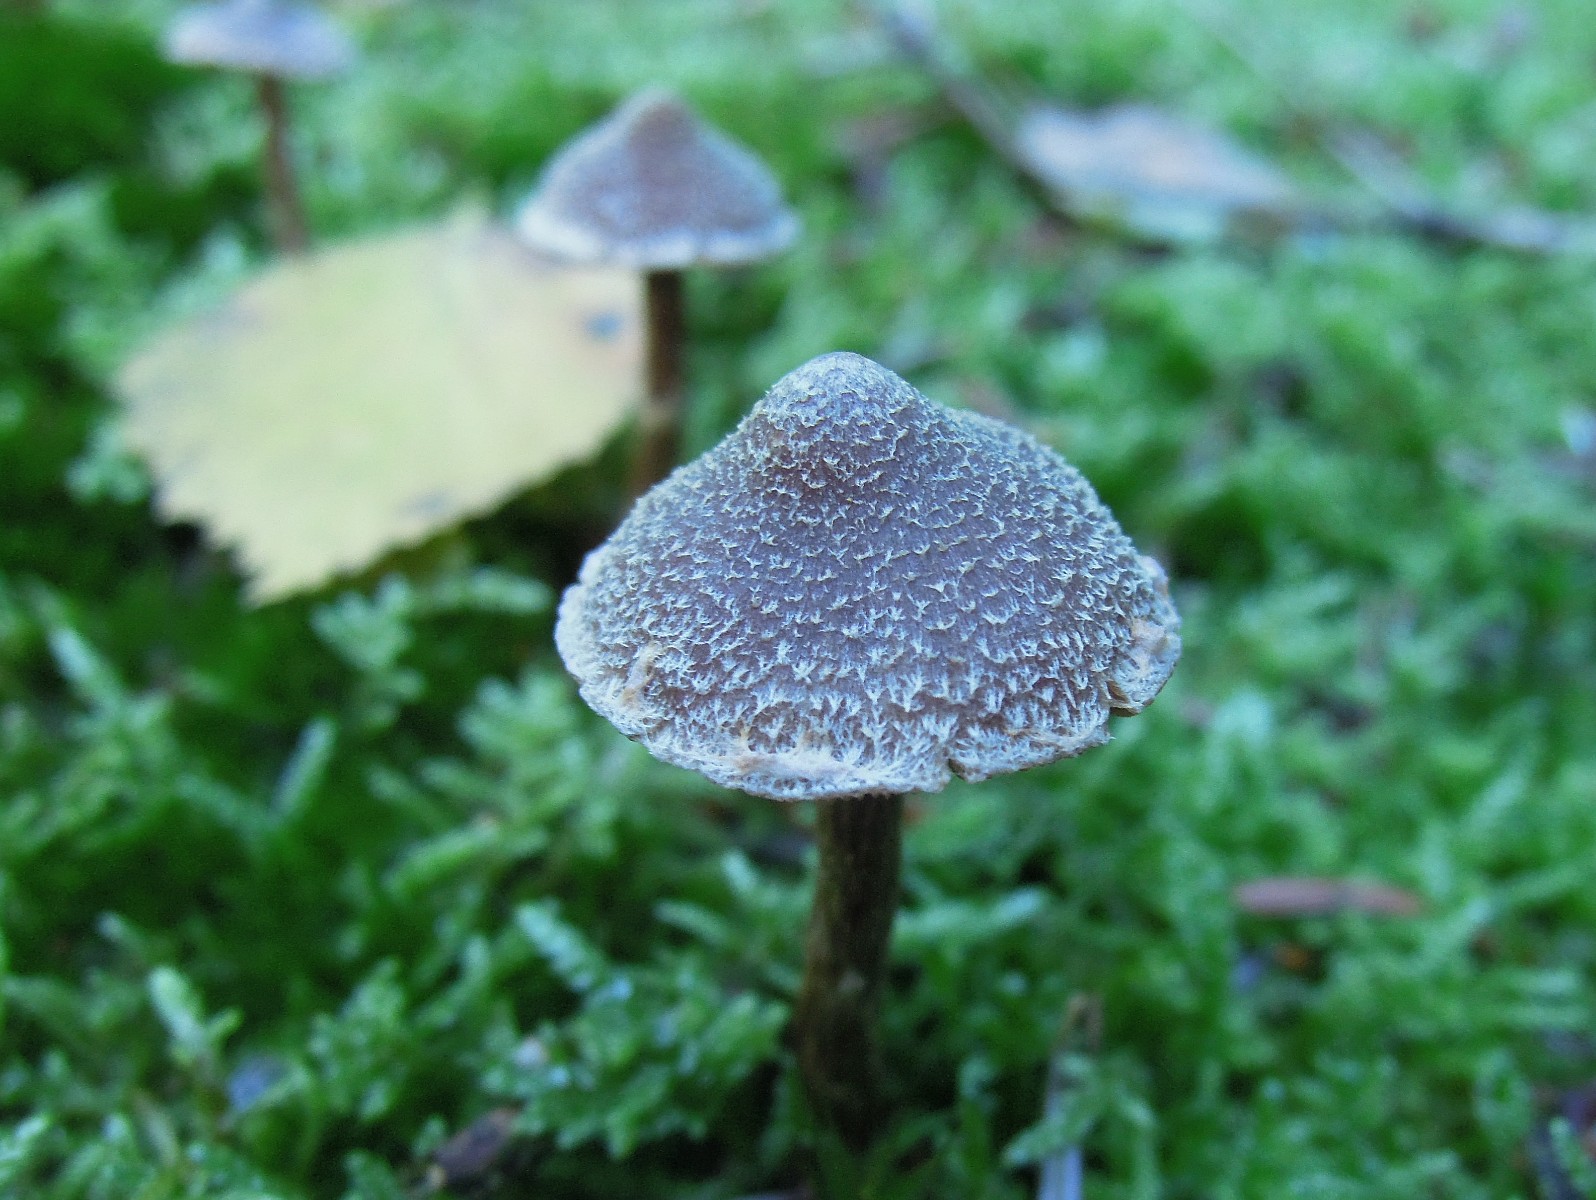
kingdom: Fungi
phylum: Basidiomycota
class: Agaricomycetes
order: Agaricales
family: Cortinariaceae
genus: Cortinarius
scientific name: Cortinarius
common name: pelargonie-slørhat
